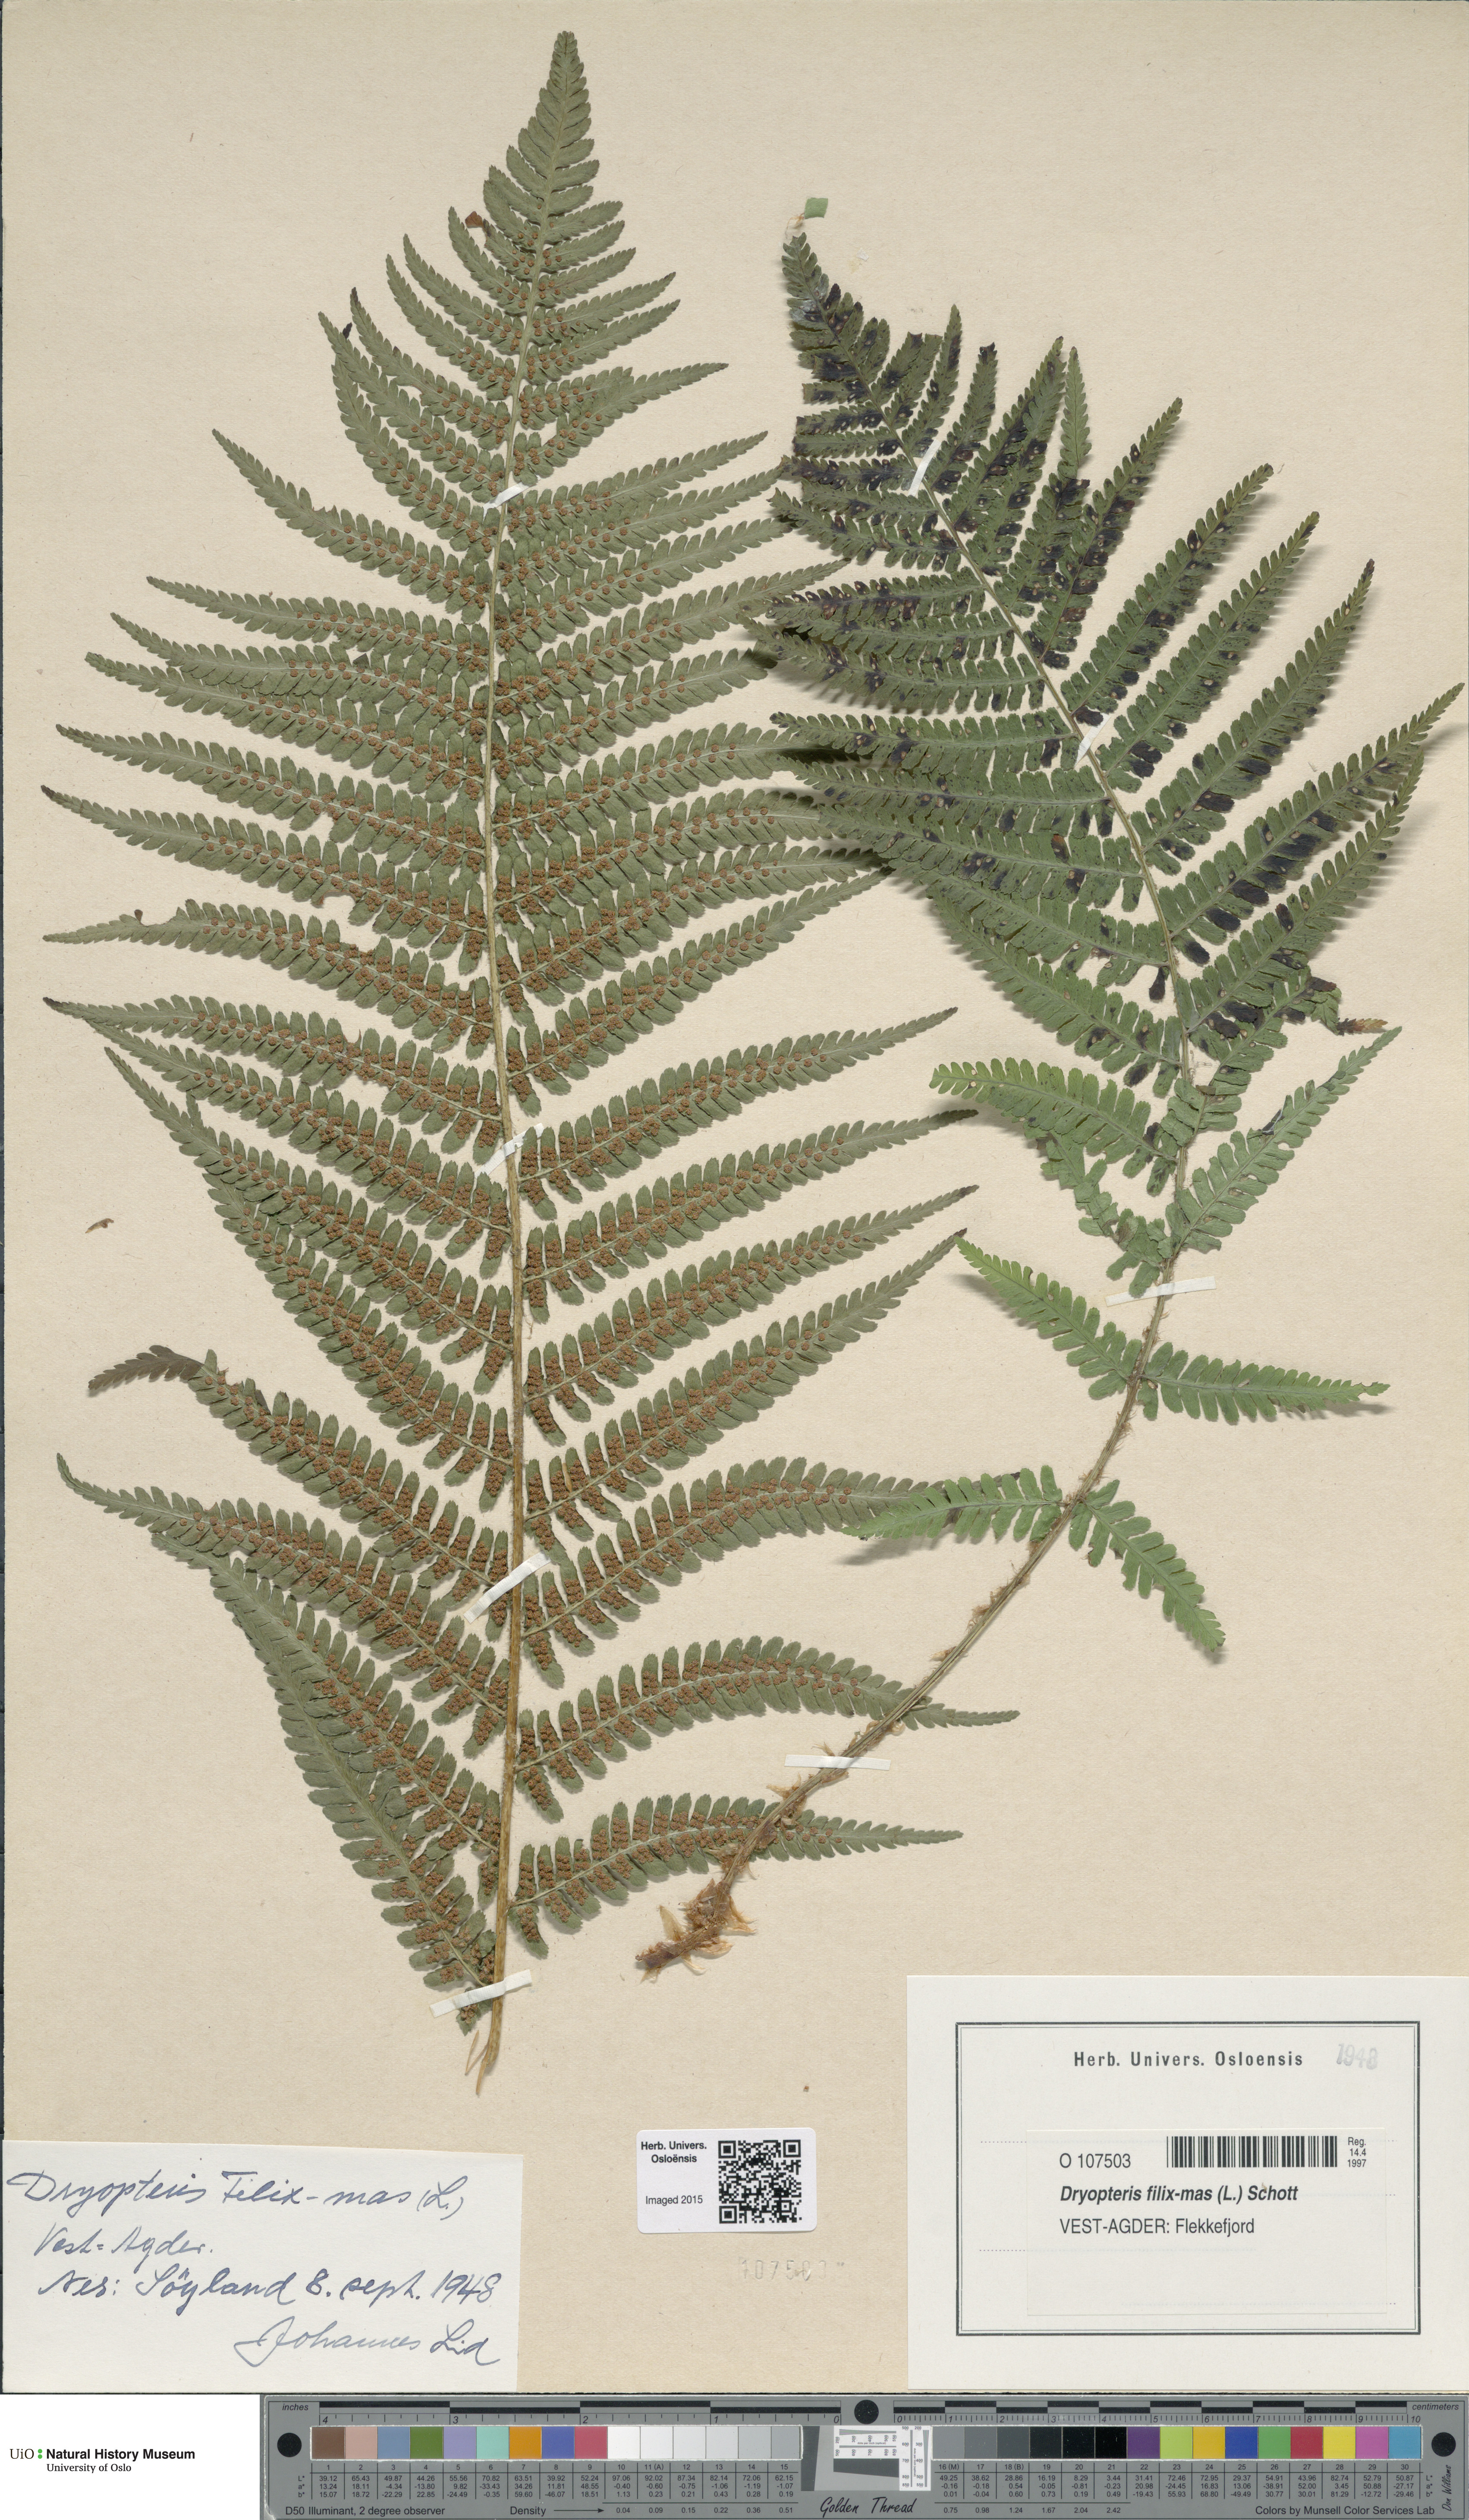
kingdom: Plantae
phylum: Tracheophyta
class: Polypodiopsida
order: Polypodiales
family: Dryopteridaceae
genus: Dryopteris
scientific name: Dryopteris filix-mas
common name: Male fern
